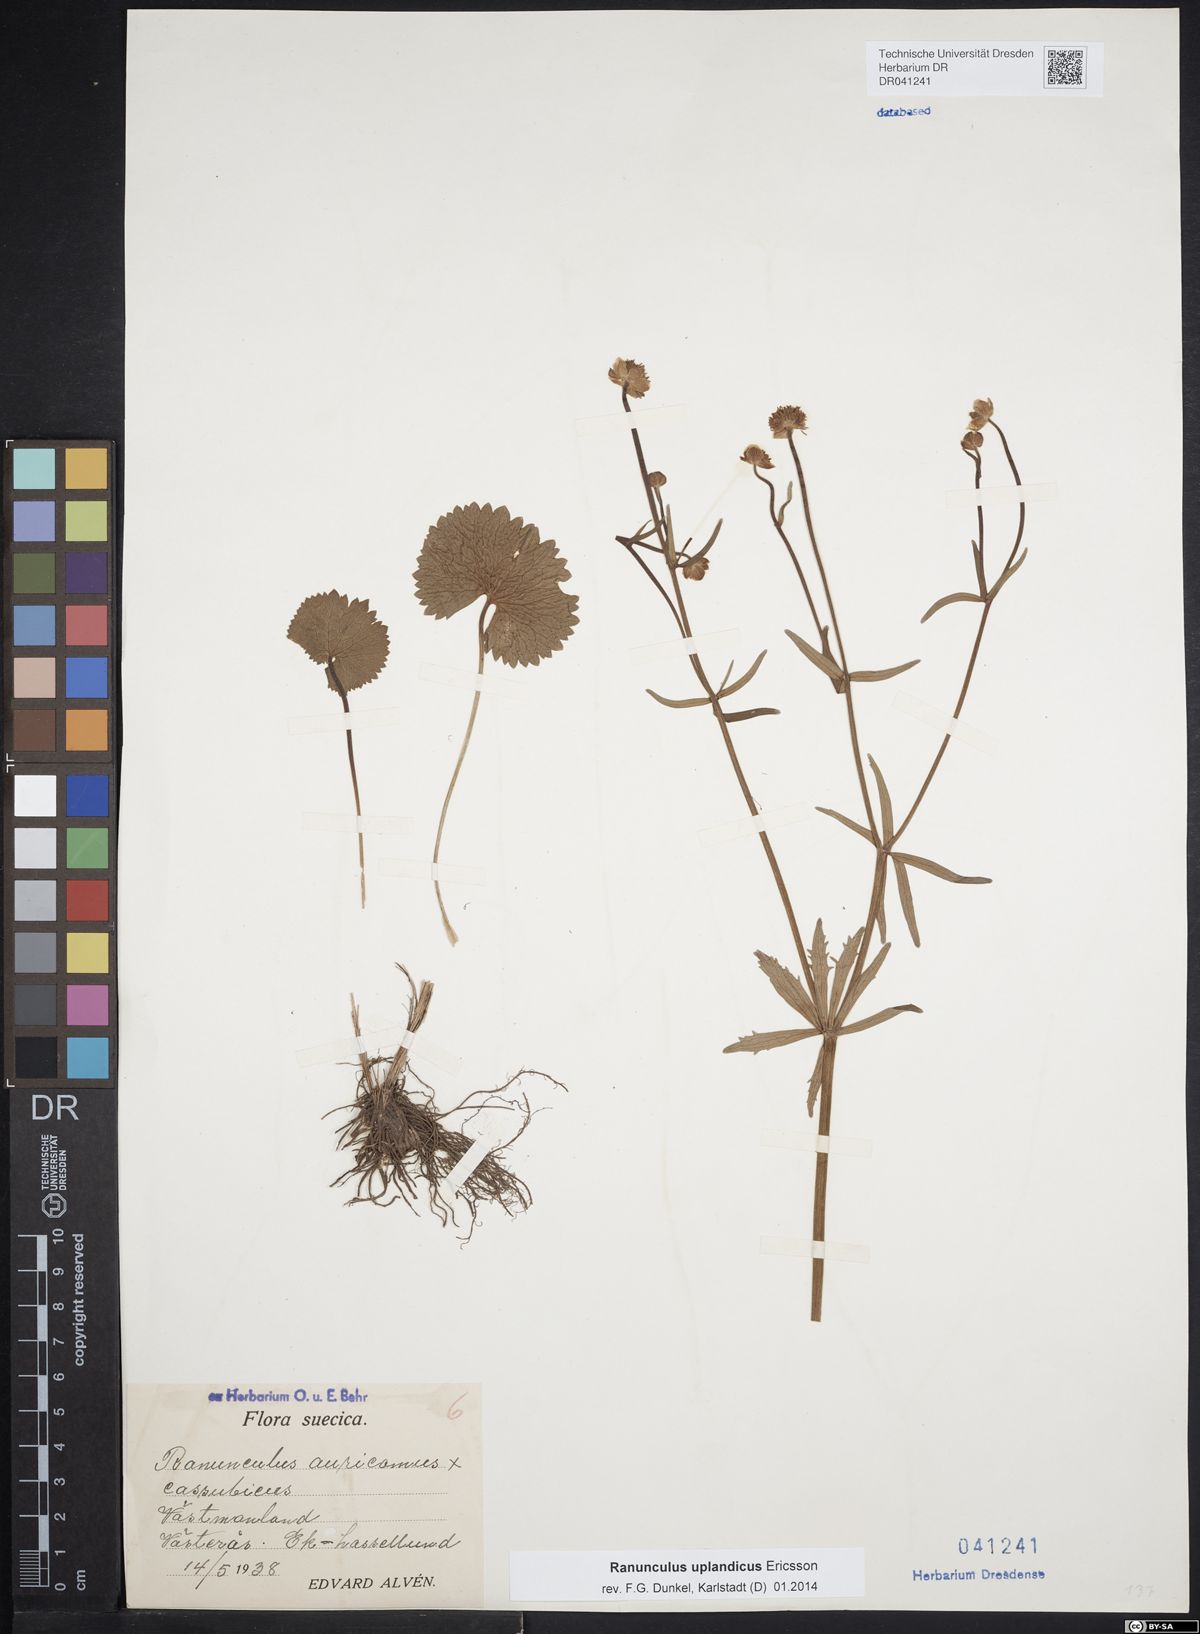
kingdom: Plantae
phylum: Tracheophyta
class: Magnoliopsida
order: Ranunculales
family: Ranunculaceae
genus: Ranunculus
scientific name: Ranunculus cassubicus
